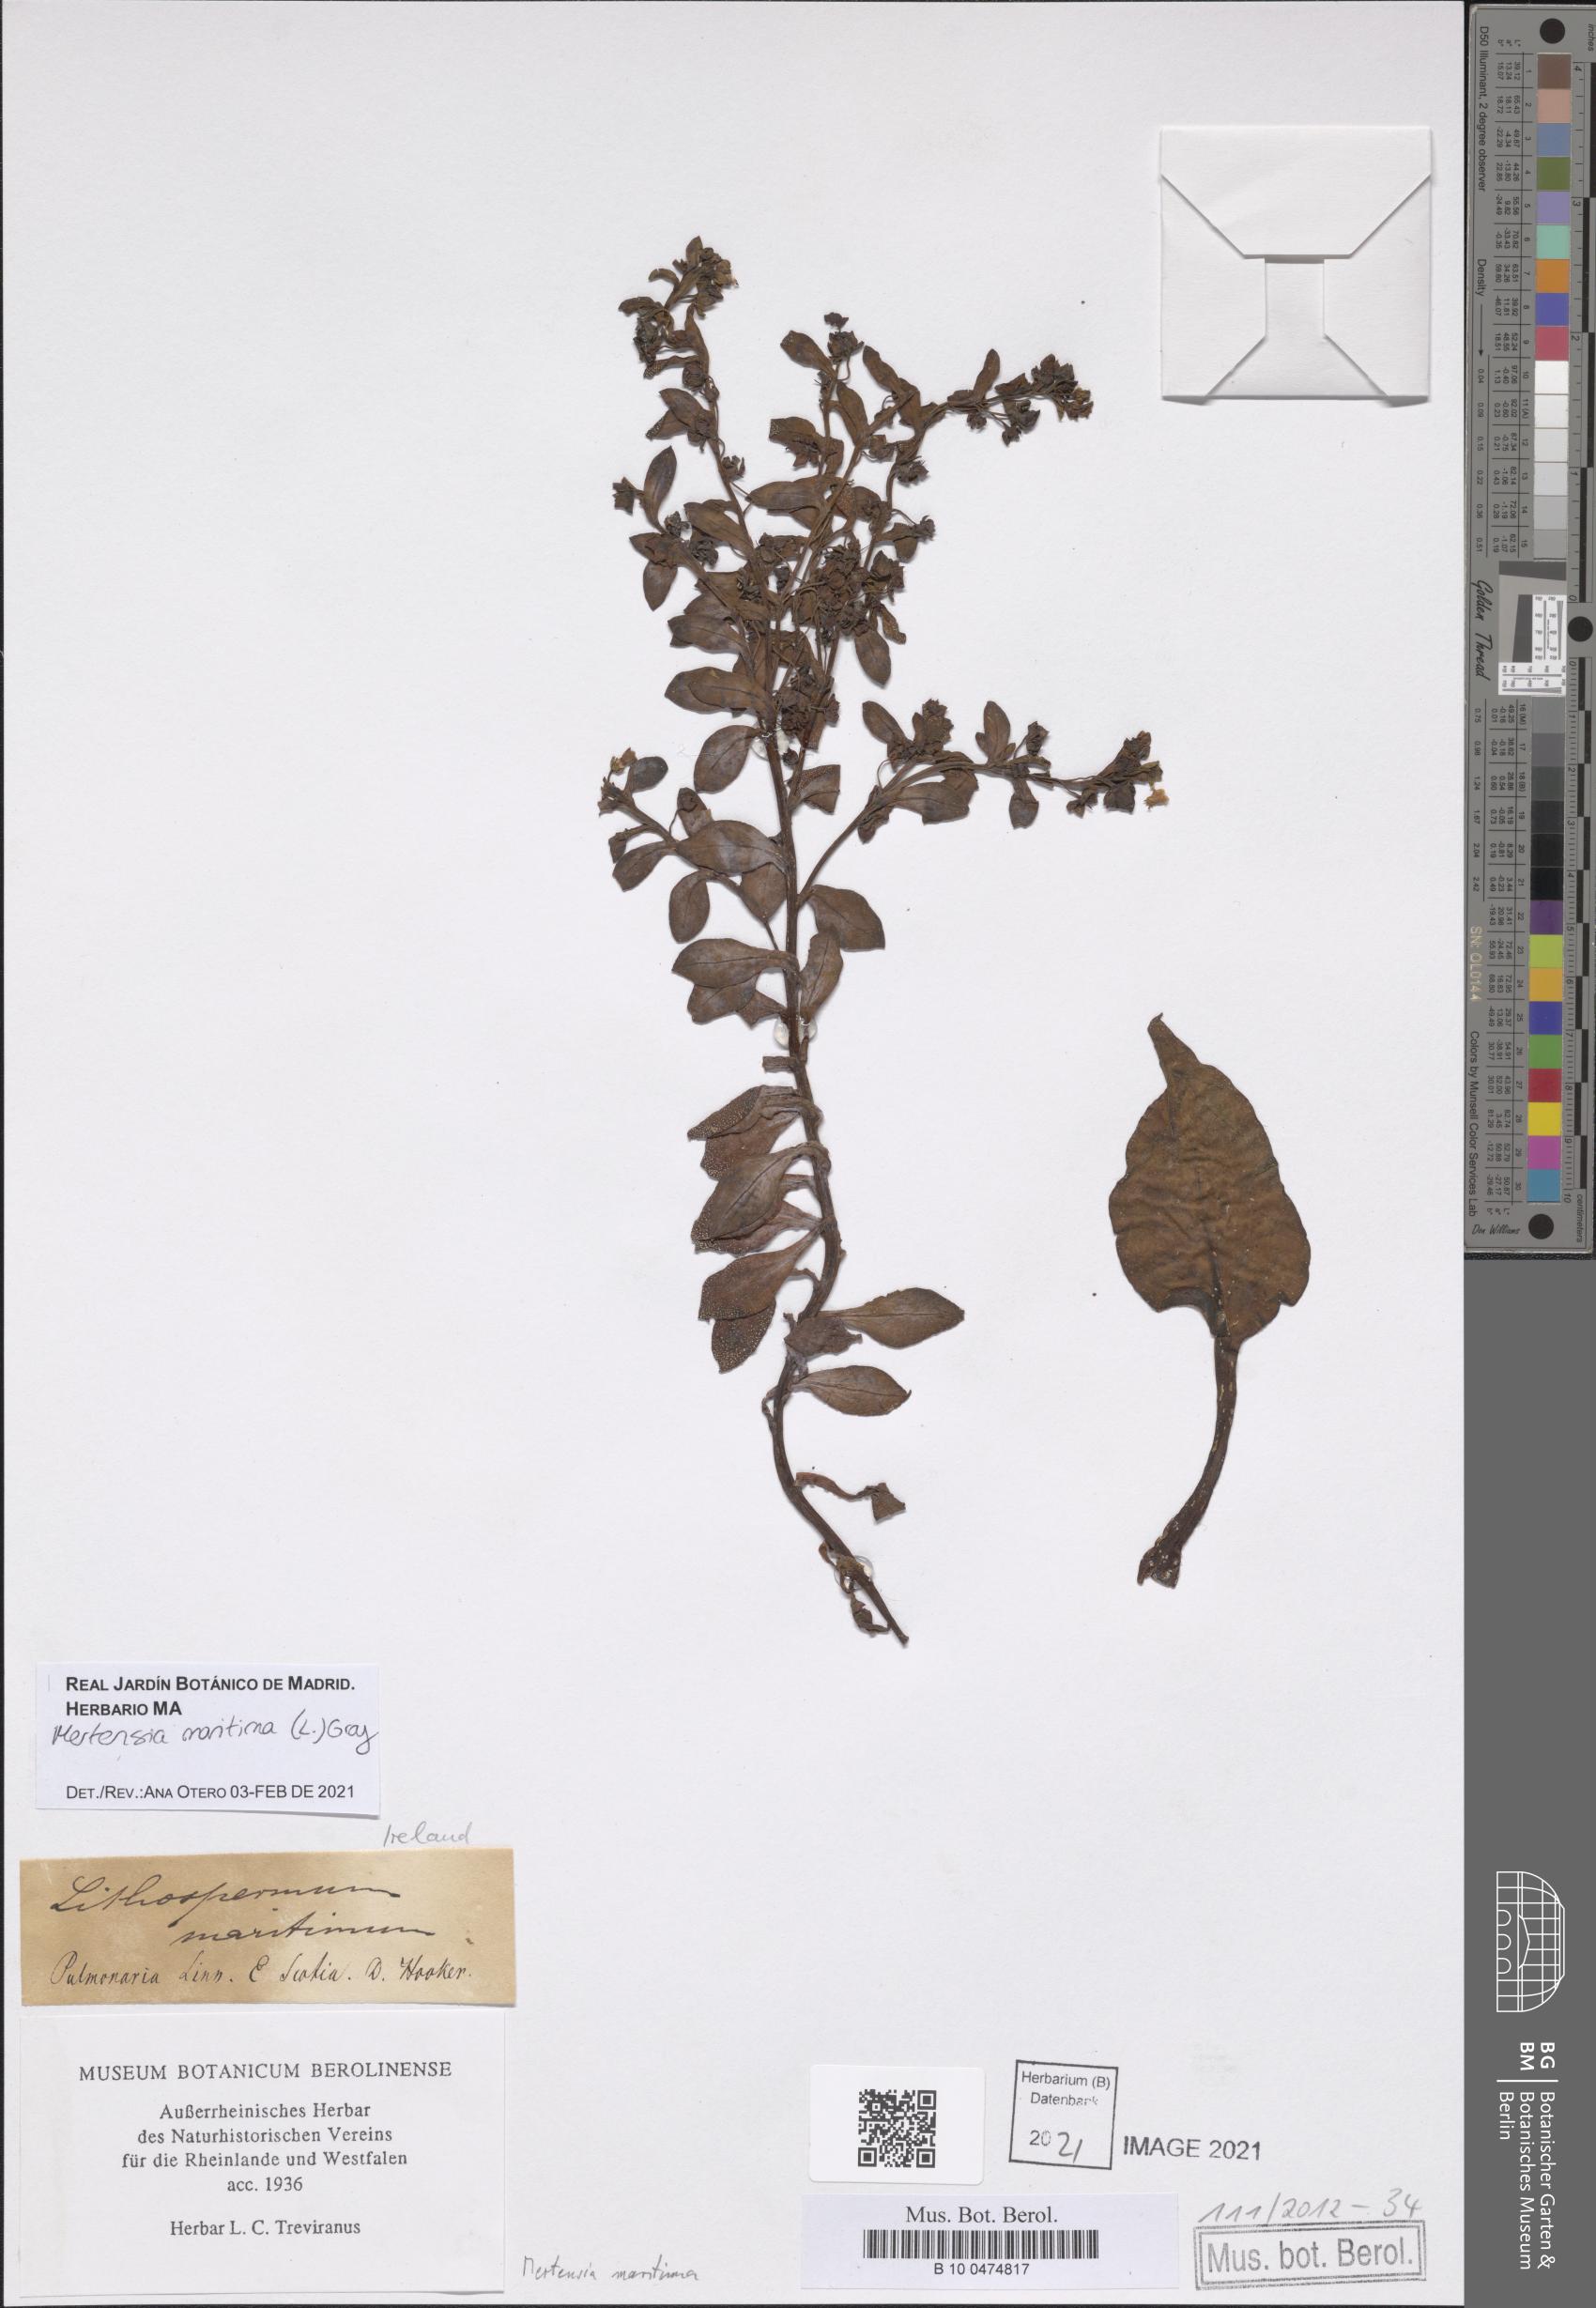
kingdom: Plantae
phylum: Tracheophyta
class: Magnoliopsida
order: Boraginales
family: Boraginaceae
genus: Mertensia
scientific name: Mertensia maritima
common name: Oysterplant
